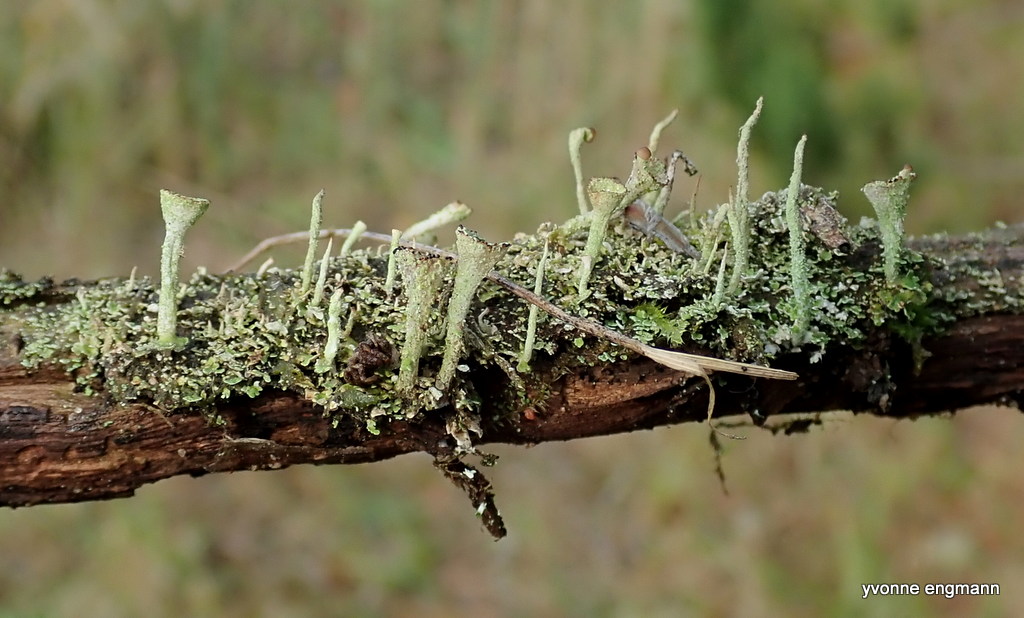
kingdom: Fungi
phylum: Ascomycota
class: Lecanoromycetes
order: Lecanorales
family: Cladoniaceae
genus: Cladonia
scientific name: Cladonia
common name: brungrøn bægerlav
